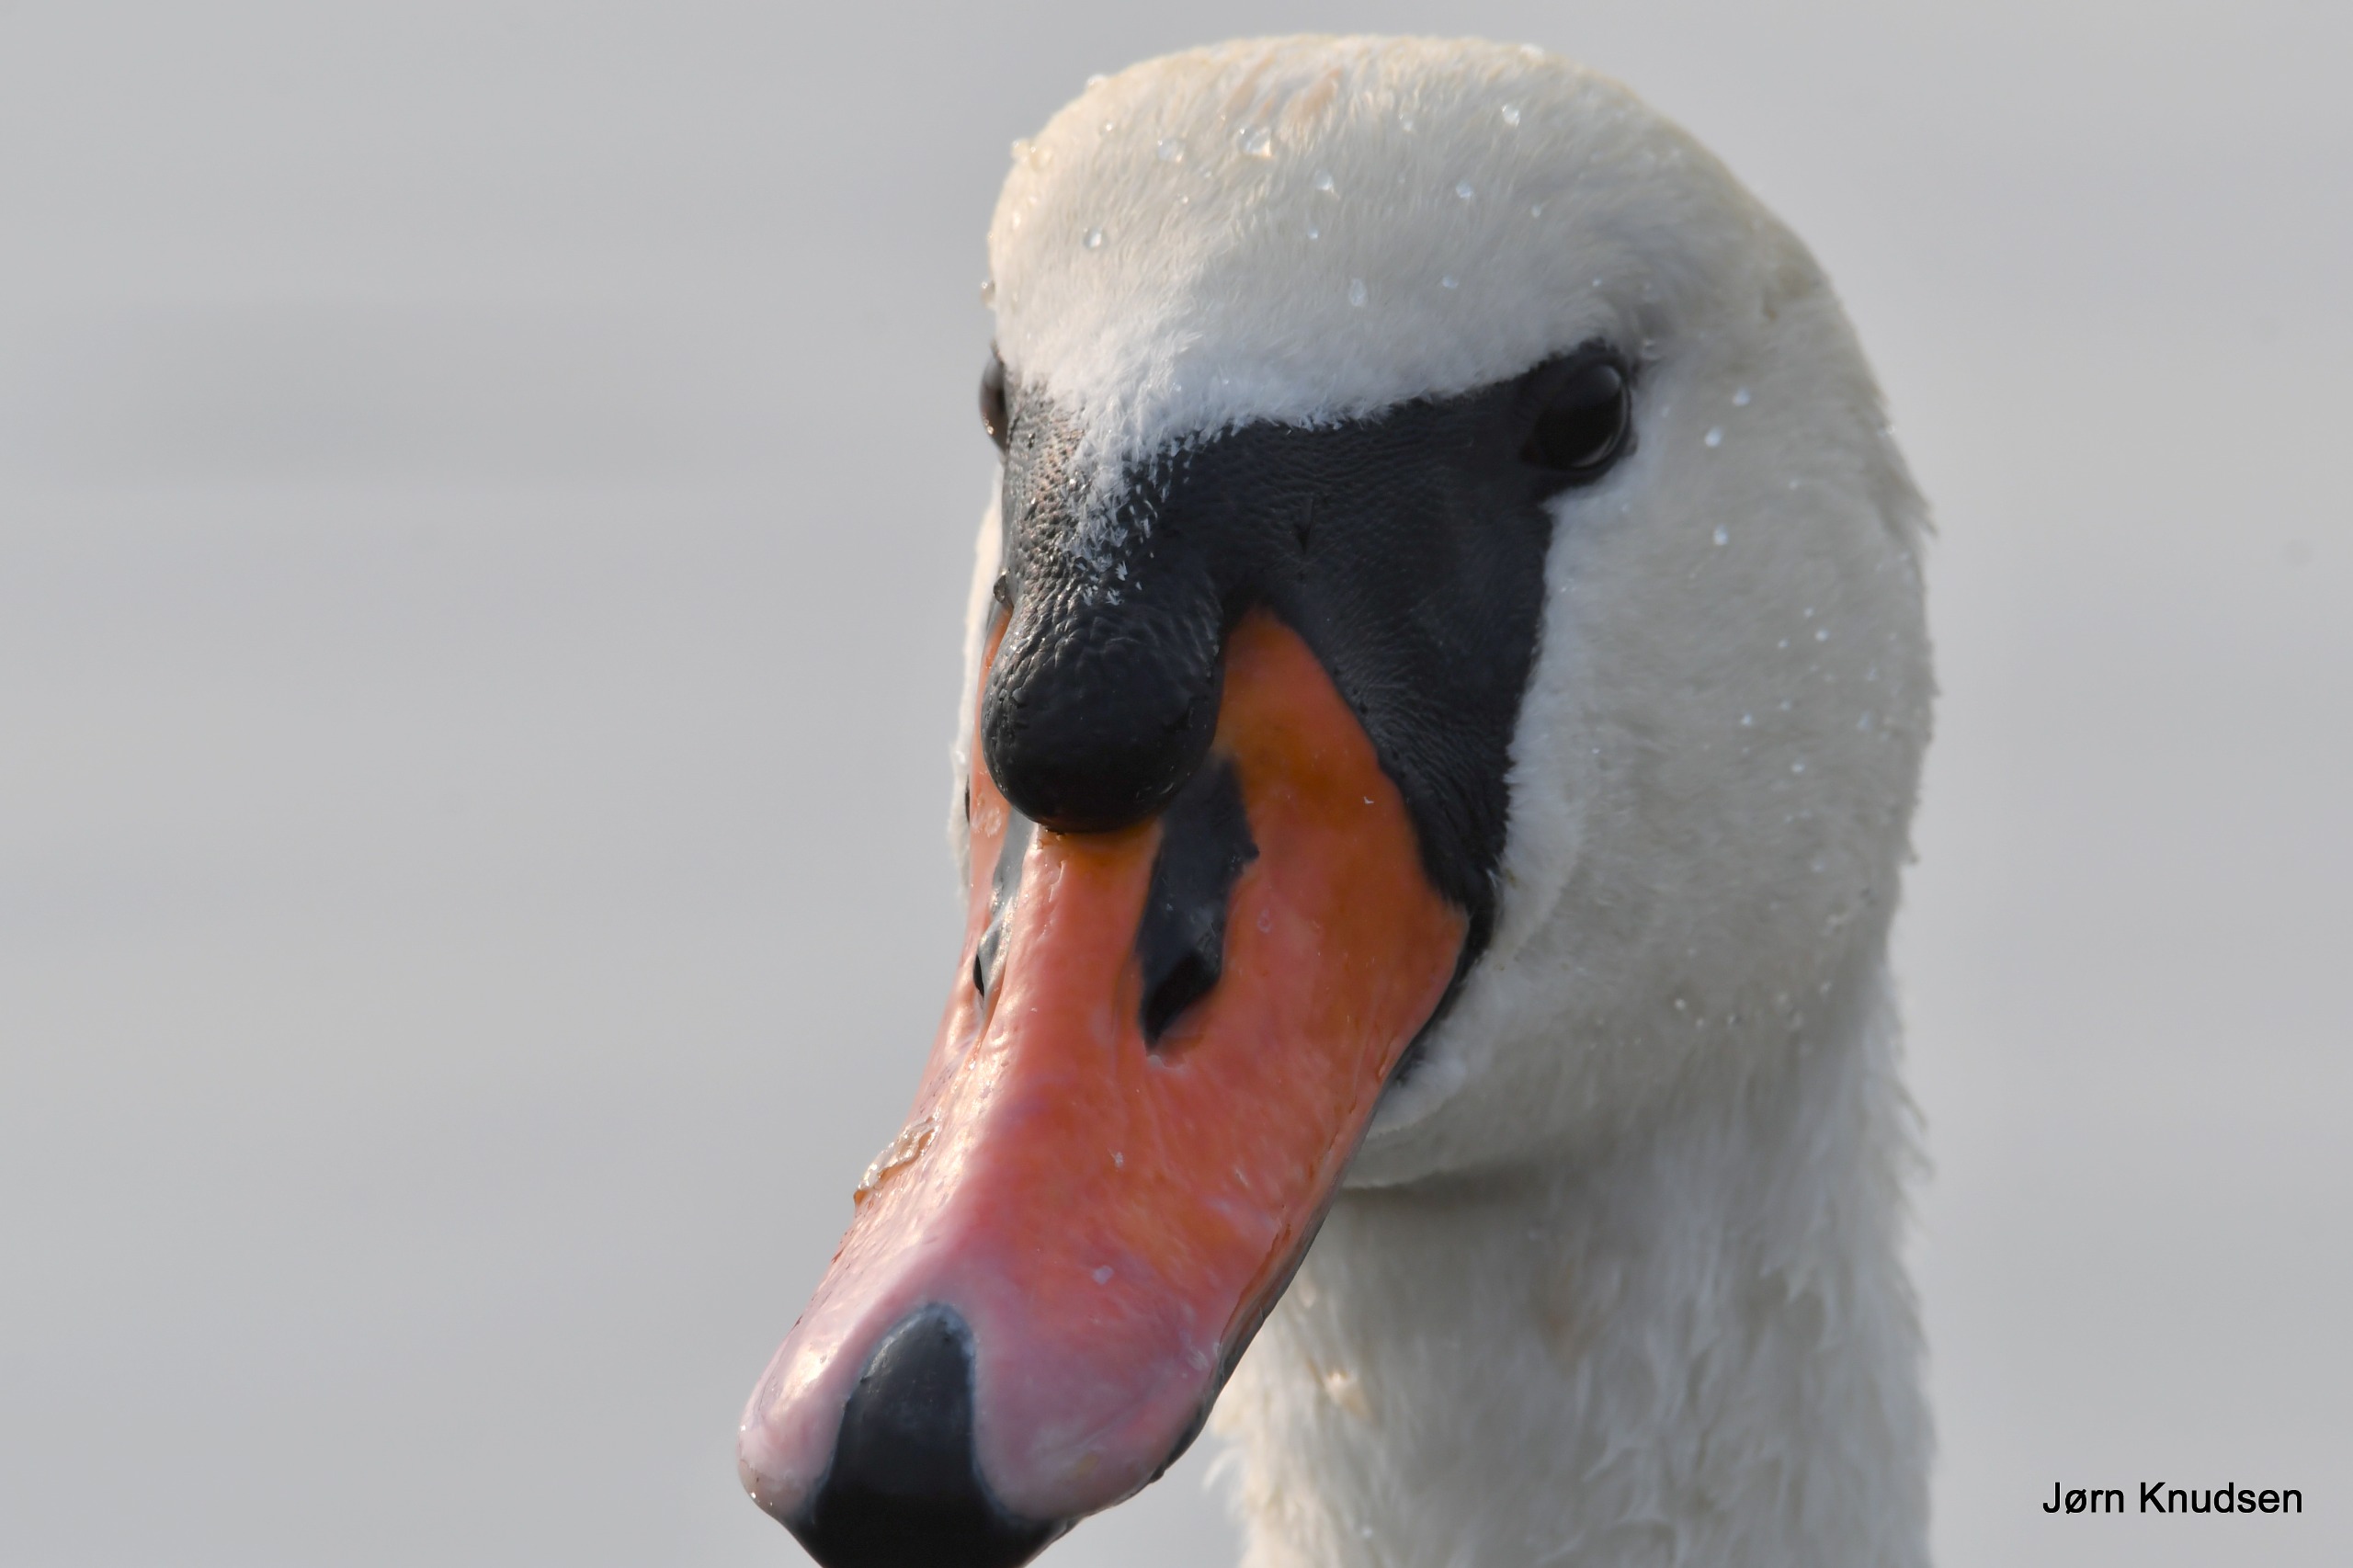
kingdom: Animalia
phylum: Chordata
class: Aves
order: Anseriformes
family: Anatidae
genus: Cygnus
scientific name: Cygnus olor
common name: Knopsvane
